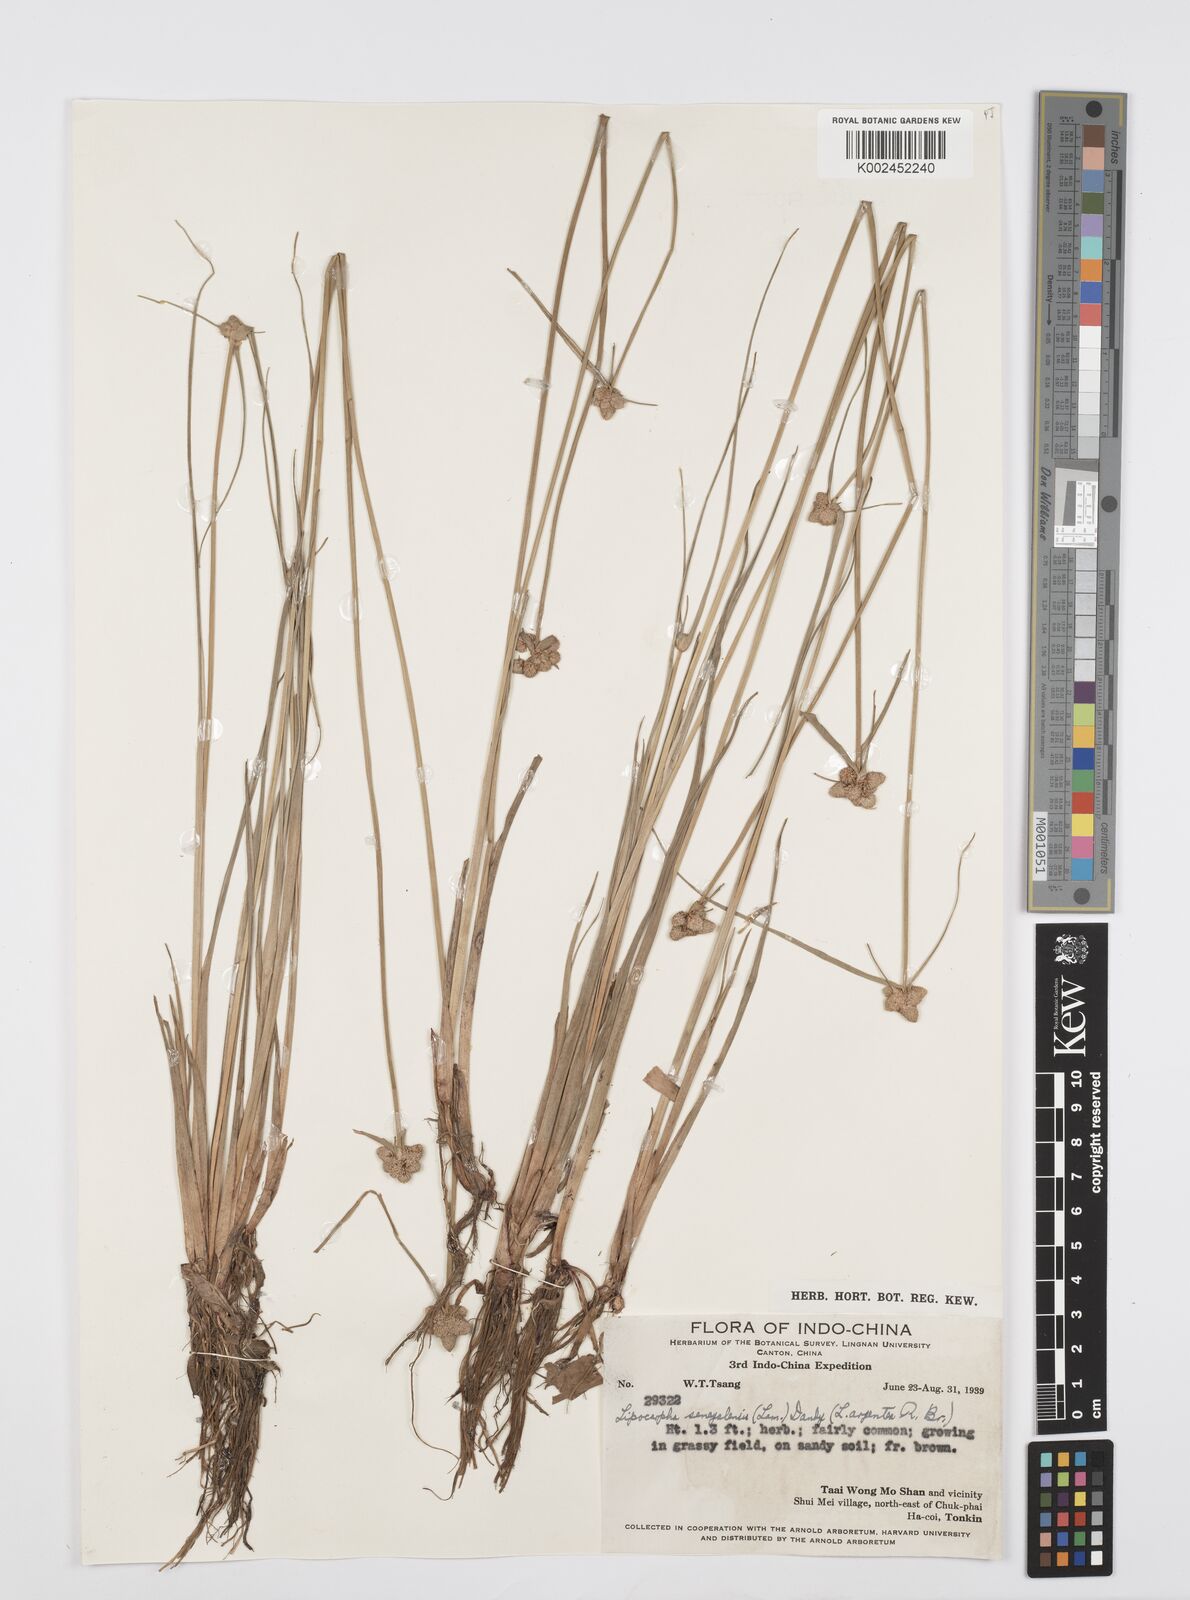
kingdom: Plantae
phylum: Tracheophyta
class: Liliopsida
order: Poales
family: Cyperaceae
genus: Cyperus
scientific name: Cyperus albescens
